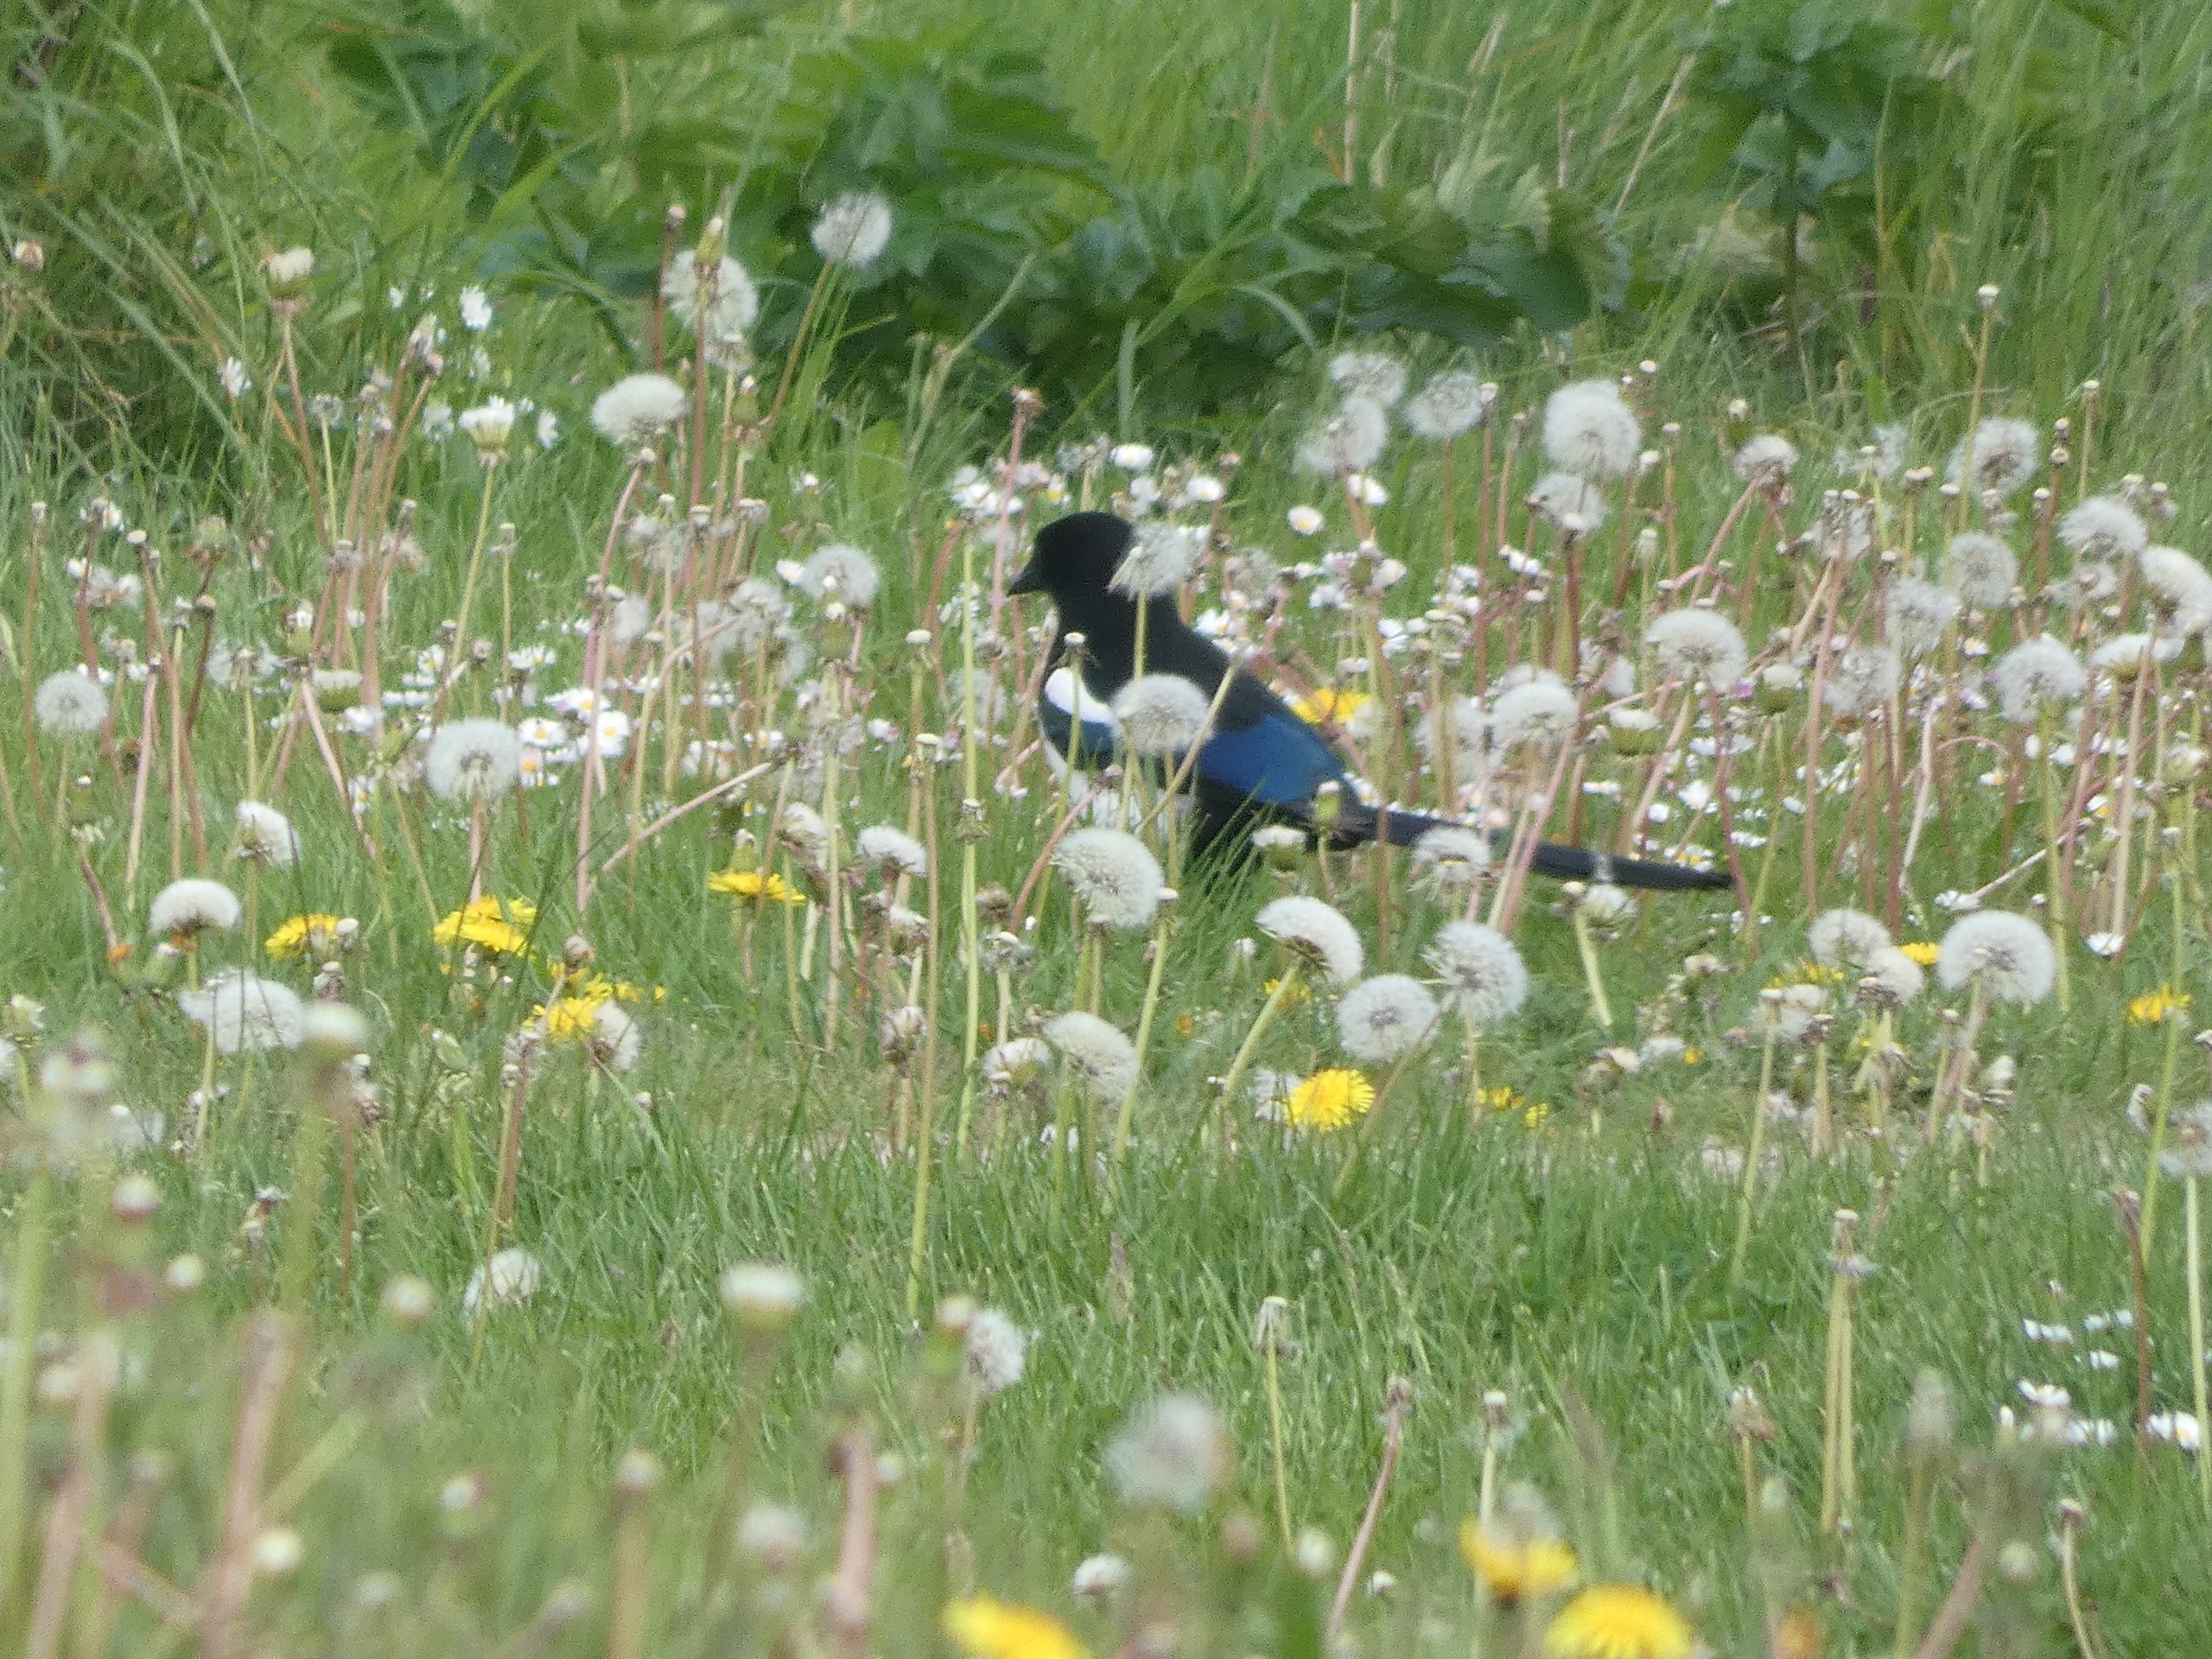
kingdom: Animalia
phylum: Chordata
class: Aves
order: Passeriformes
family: Corvidae
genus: Pica
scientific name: Pica pica
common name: Husskade
